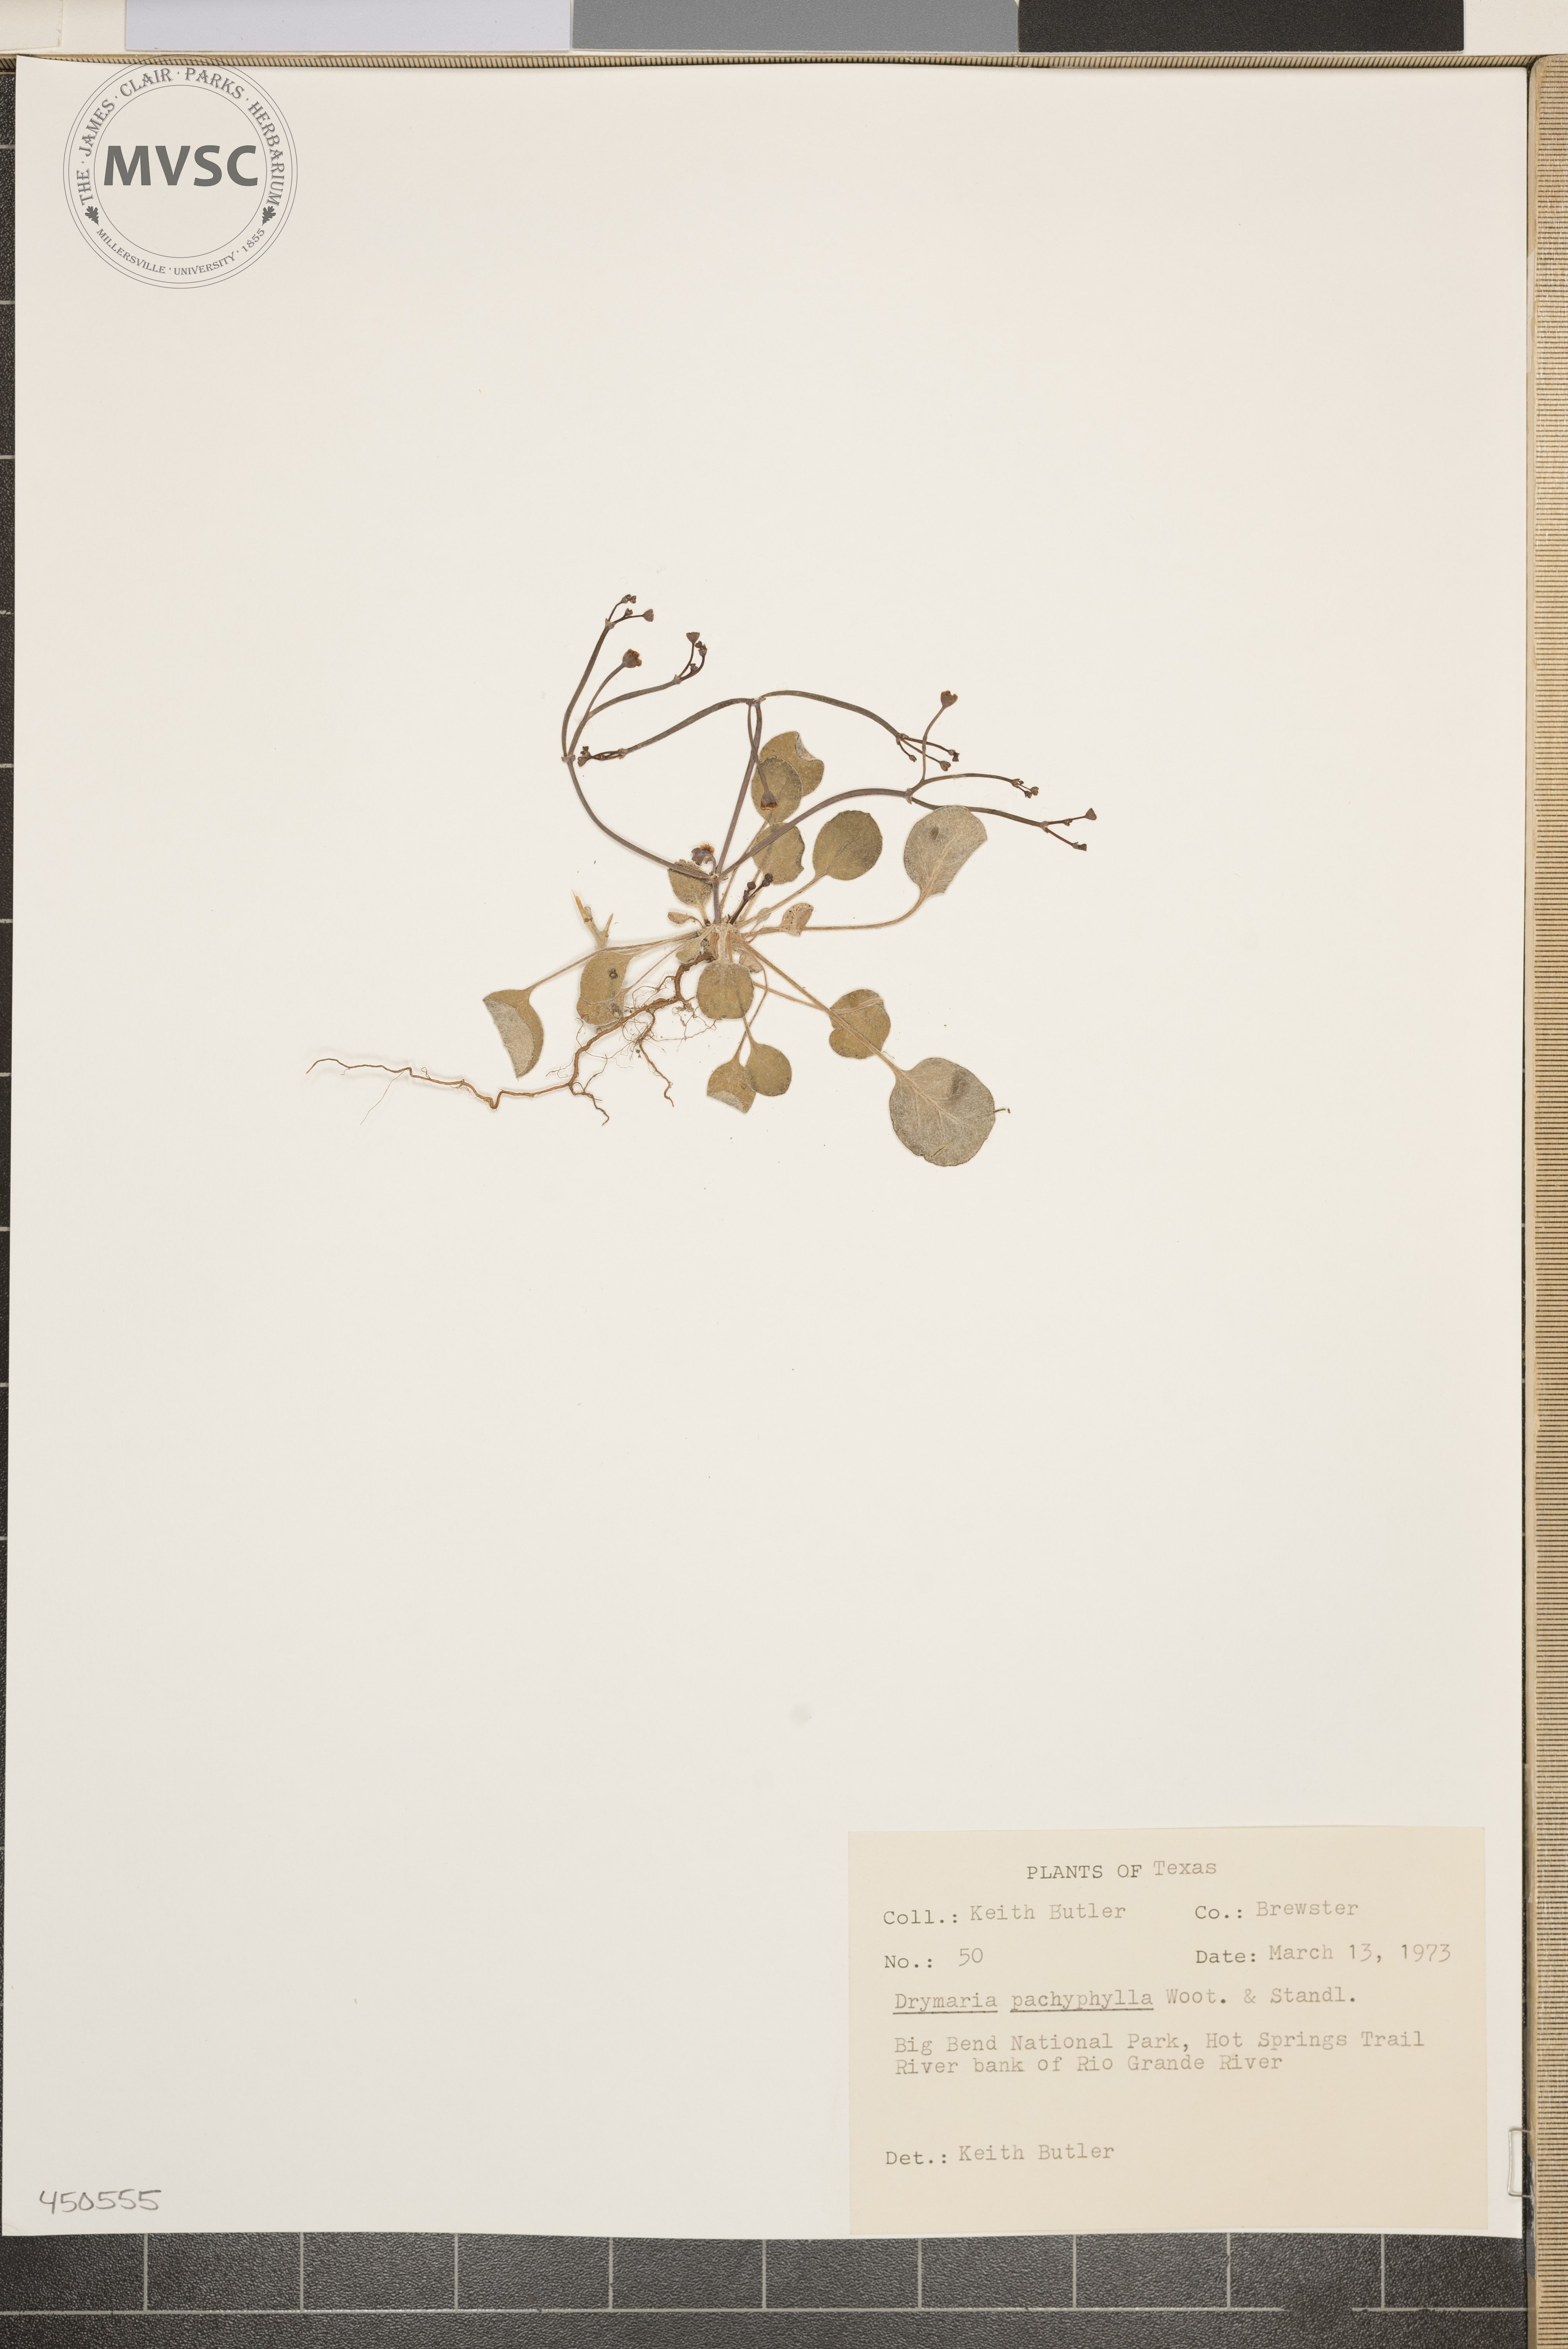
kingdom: Plantae
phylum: Tracheophyta
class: Magnoliopsida
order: Caryophyllales
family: Caryophyllaceae
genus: Drymaria
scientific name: Drymaria pachyphylla
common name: Inkweed
